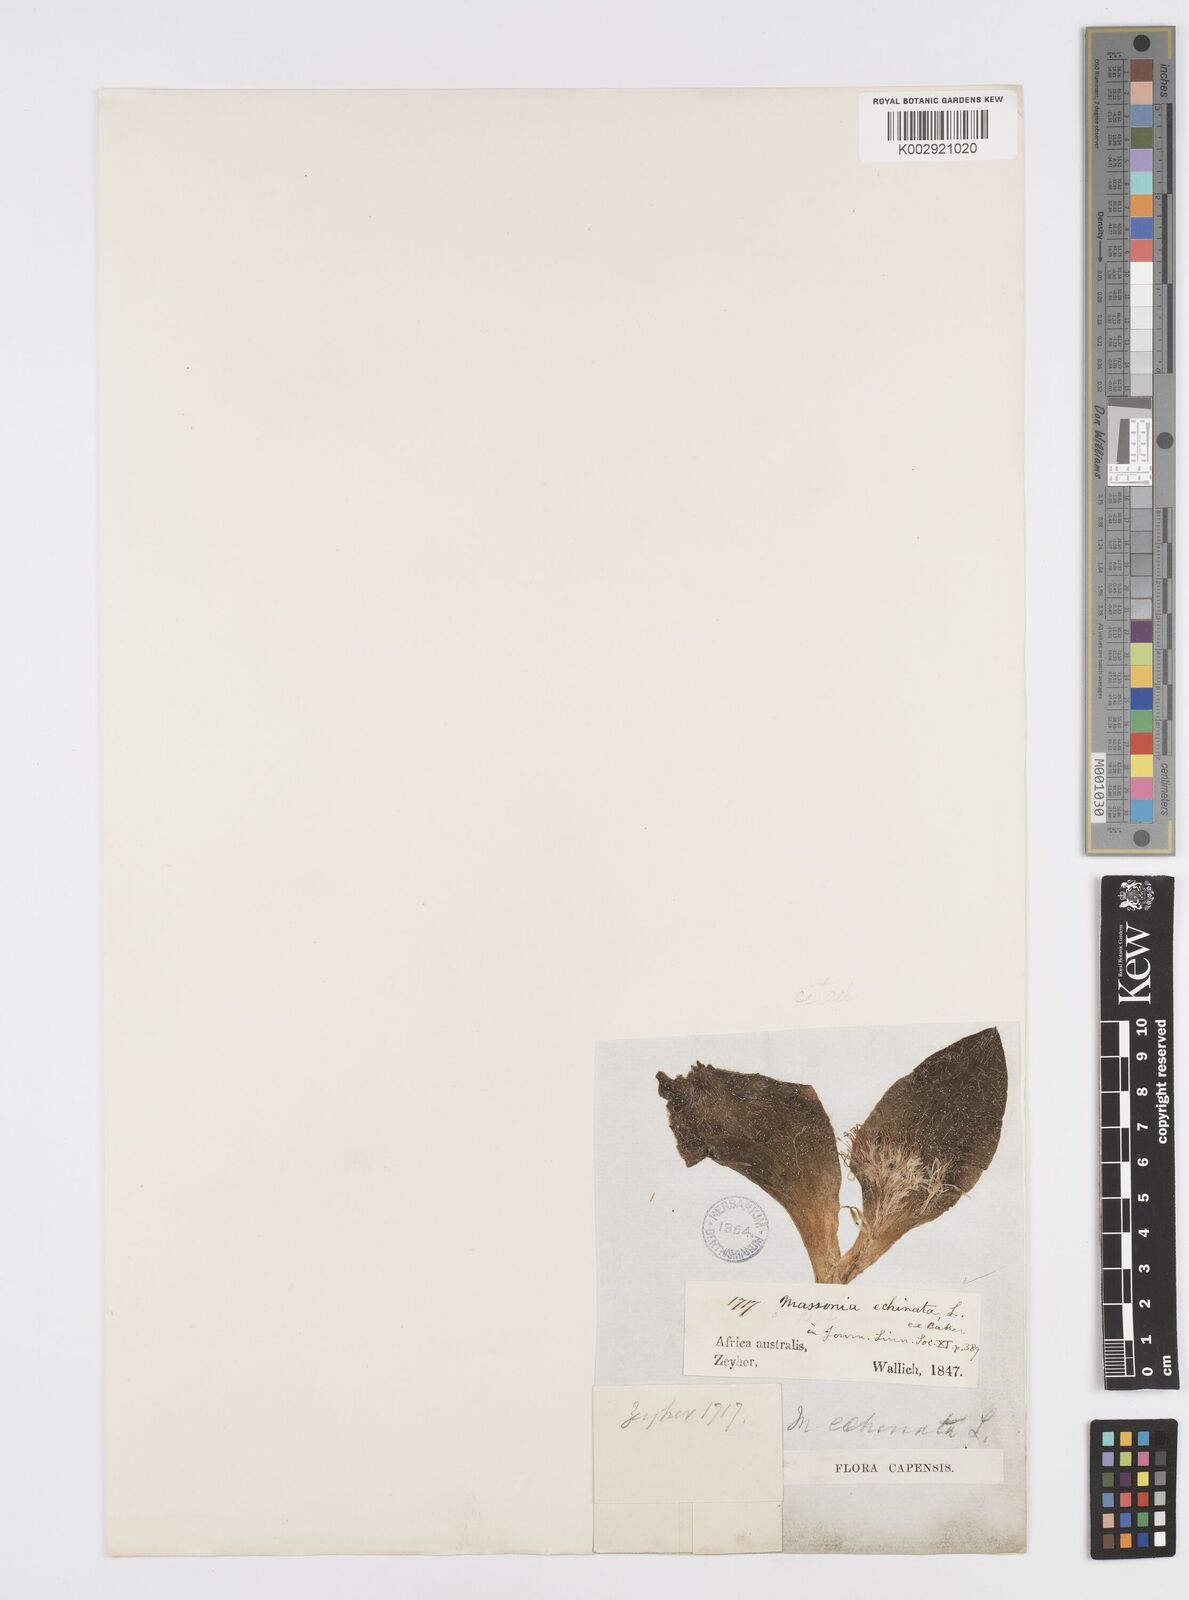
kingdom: Plantae
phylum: Tracheophyta
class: Liliopsida
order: Asparagales
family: Asparagaceae
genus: Massonia
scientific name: Massonia echinata
